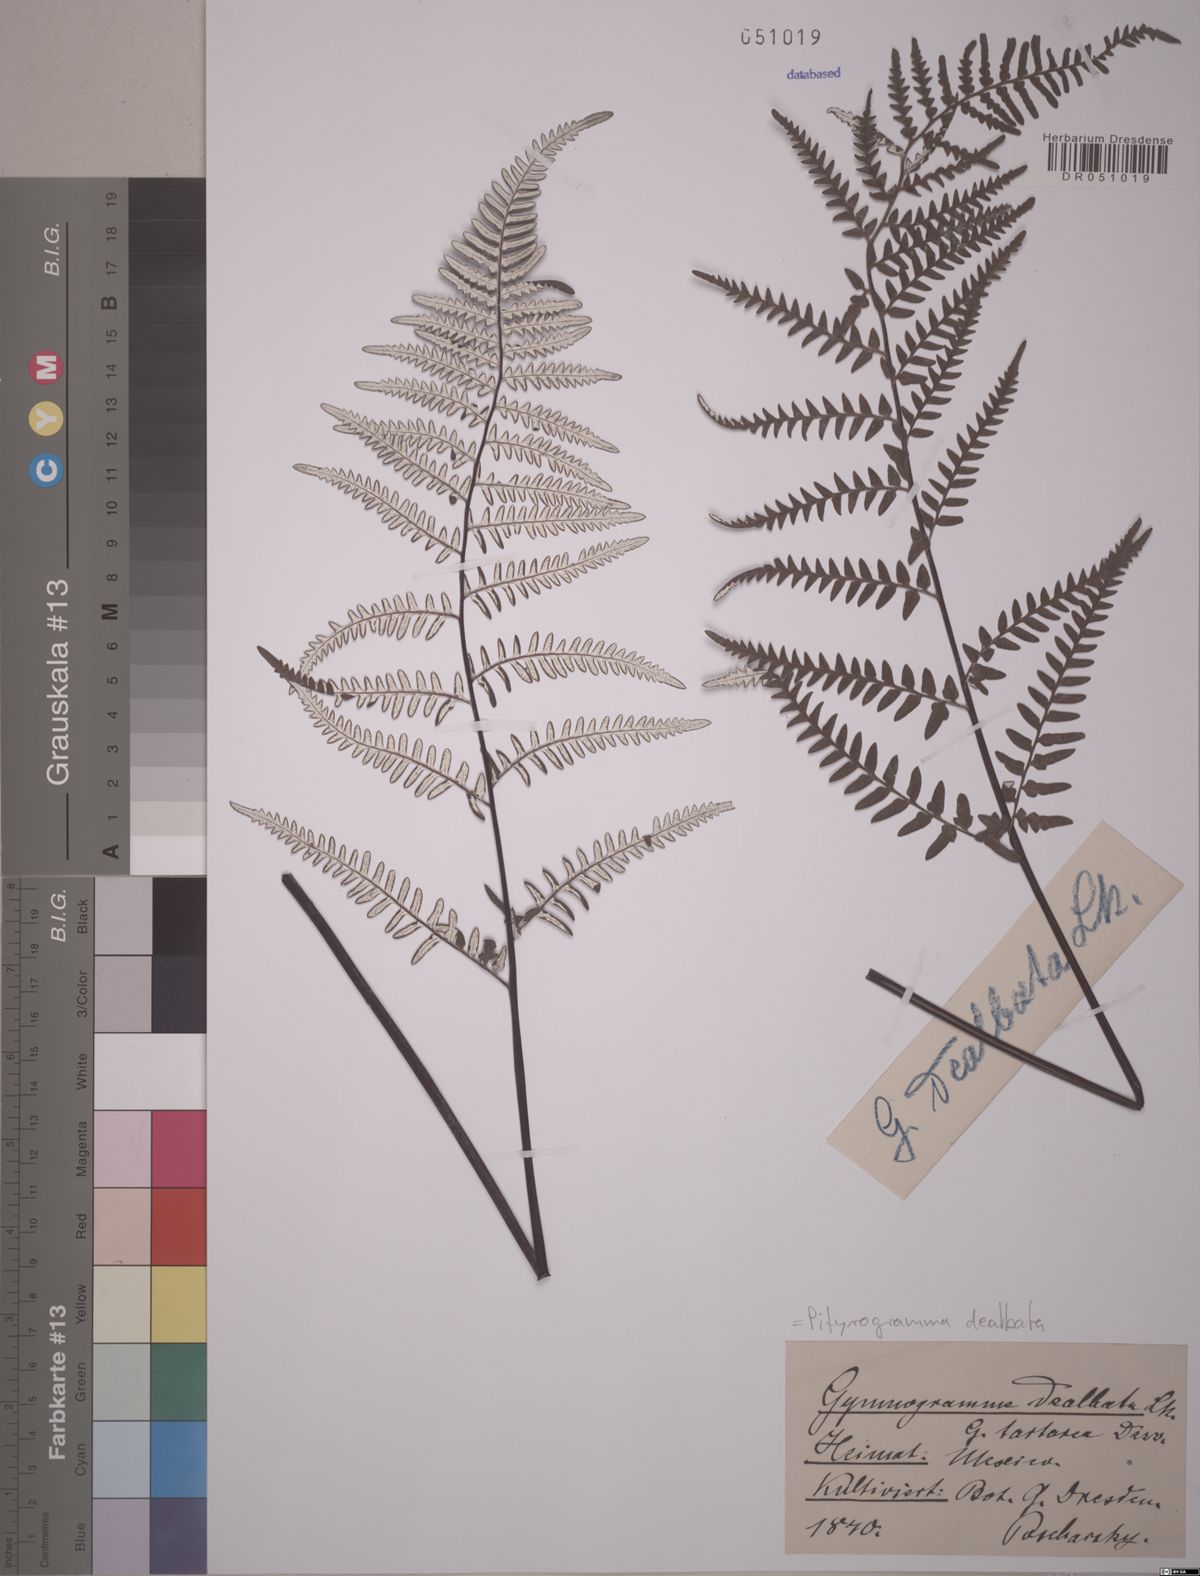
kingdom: Plantae
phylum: Tracheophyta
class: Polypodiopsida
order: Polypodiales
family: Pteridaceae
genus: Pityrogramma
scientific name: Pityrogramma dealbata
